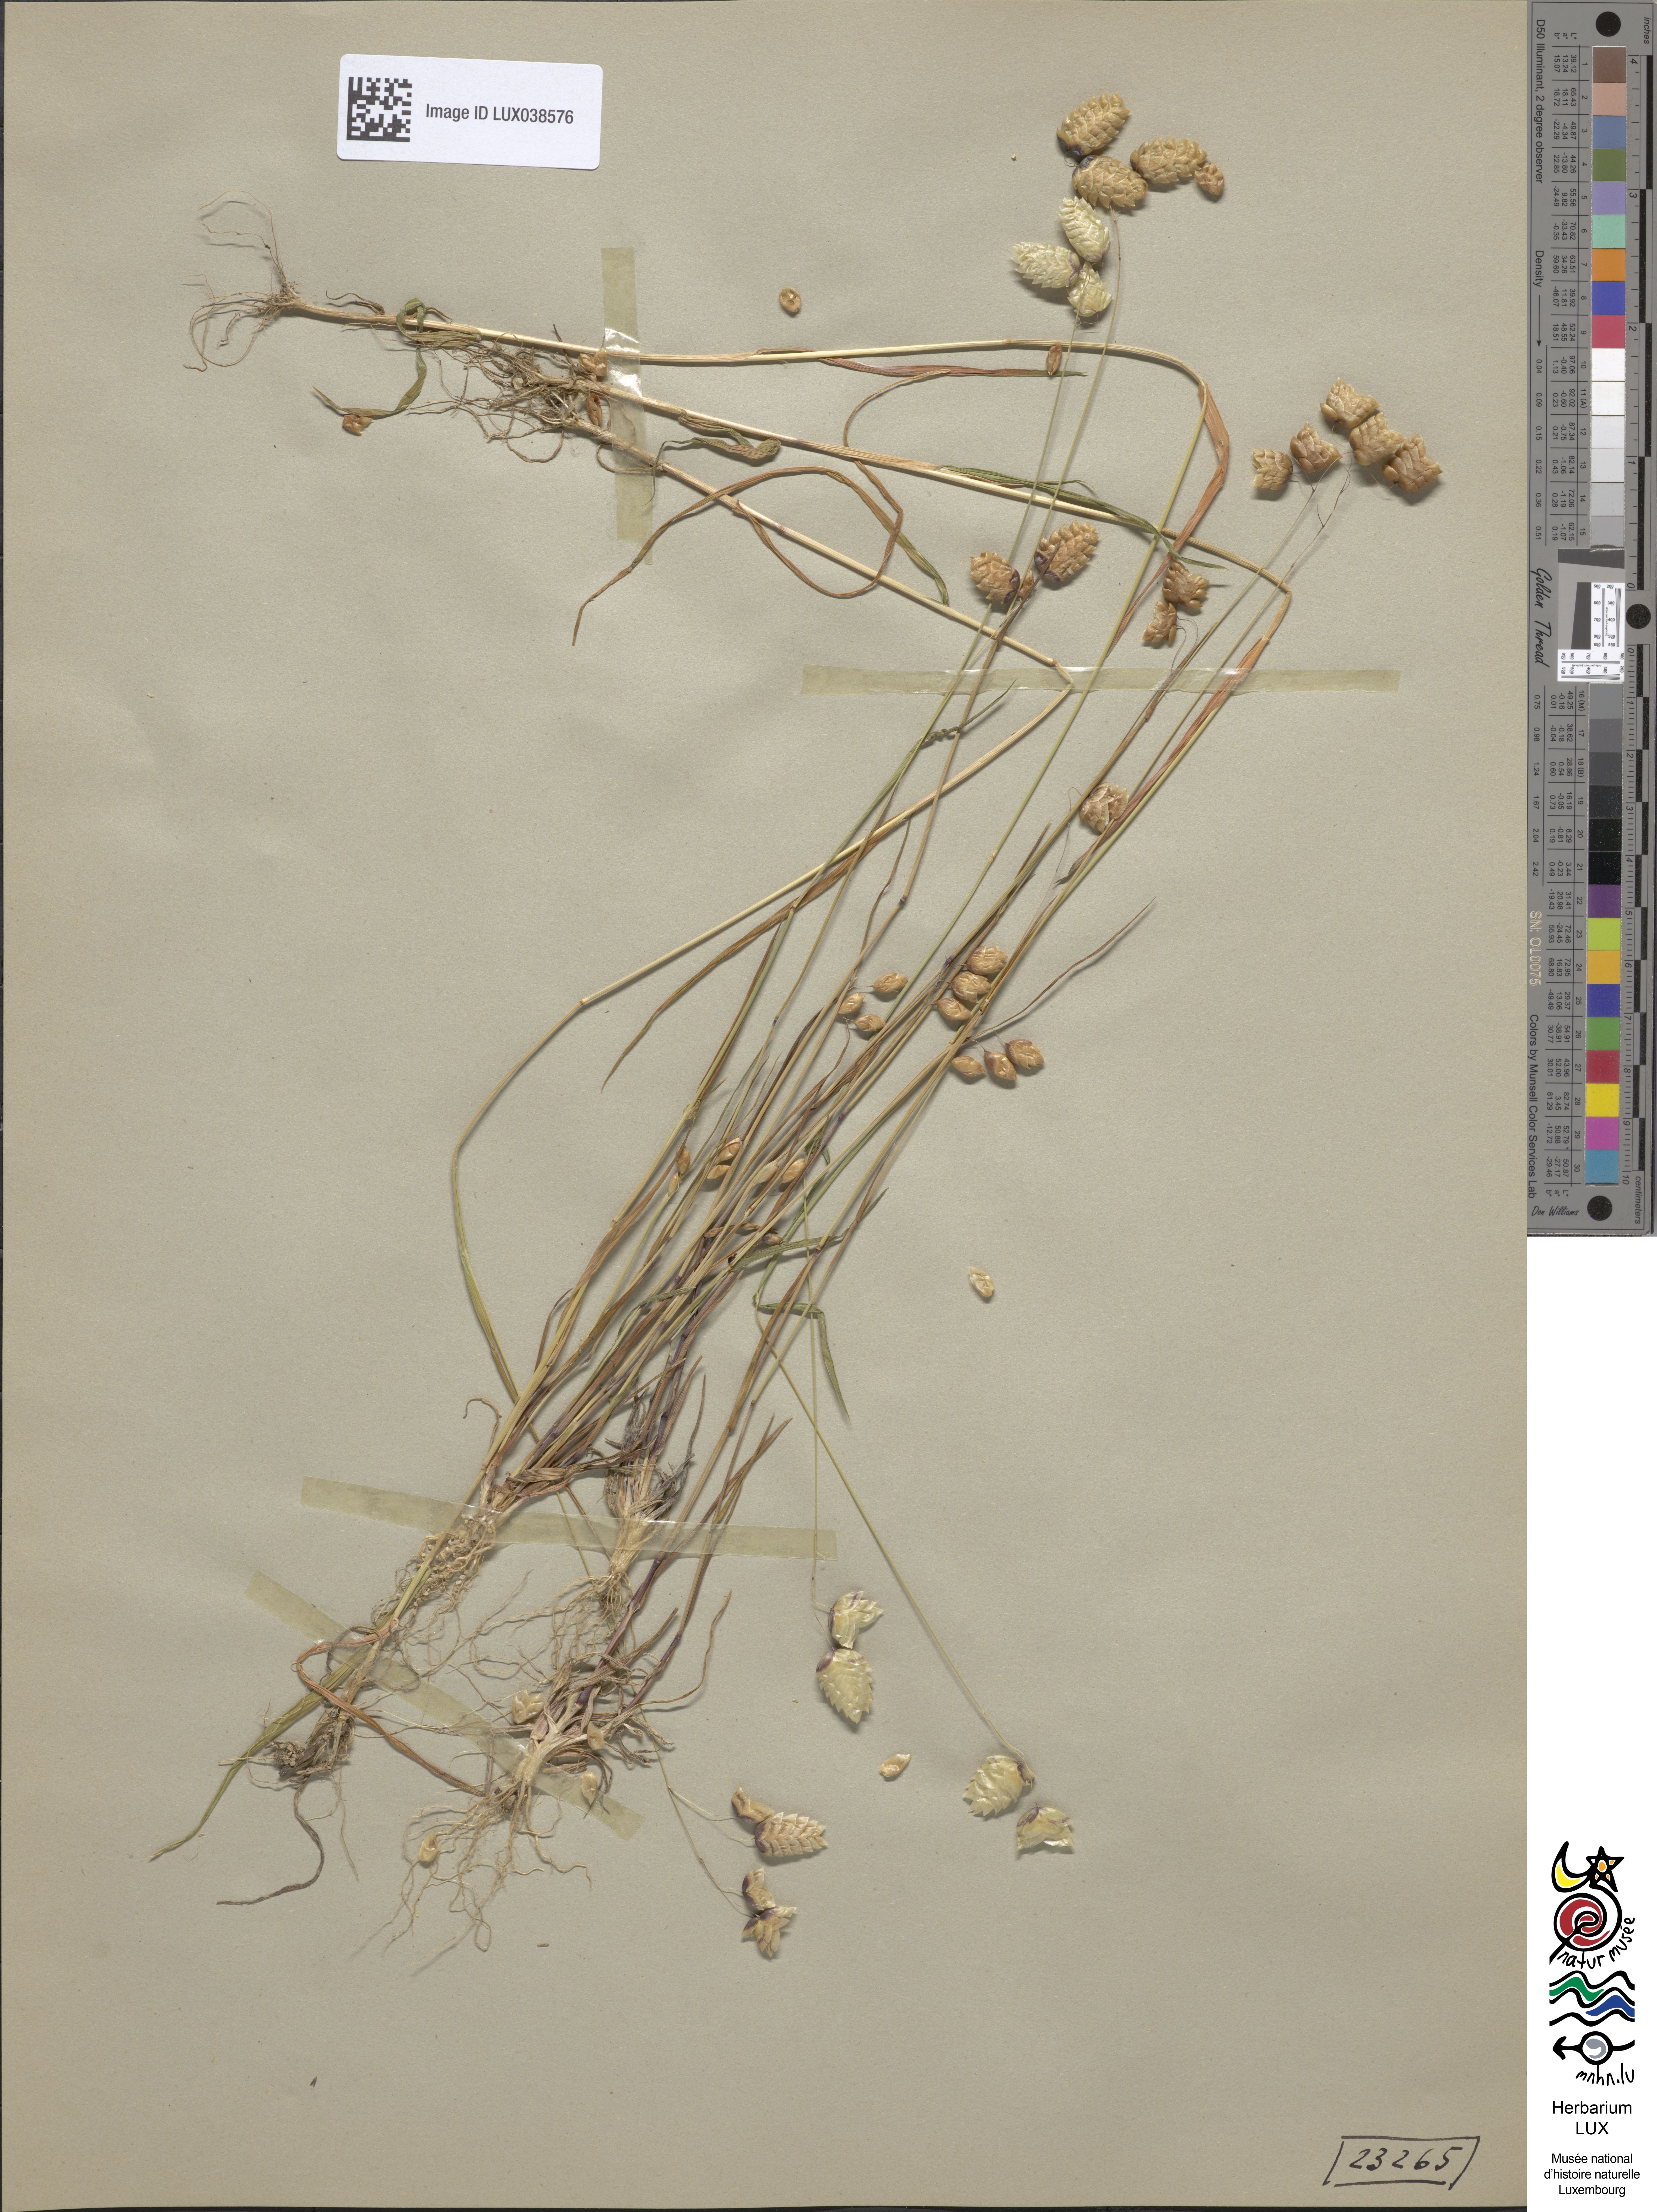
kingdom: Plantae
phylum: Tracheophyta
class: Liliopsida
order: Poales
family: Poaceae
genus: Briza
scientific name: Briza maxima
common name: Big quakinggrass
